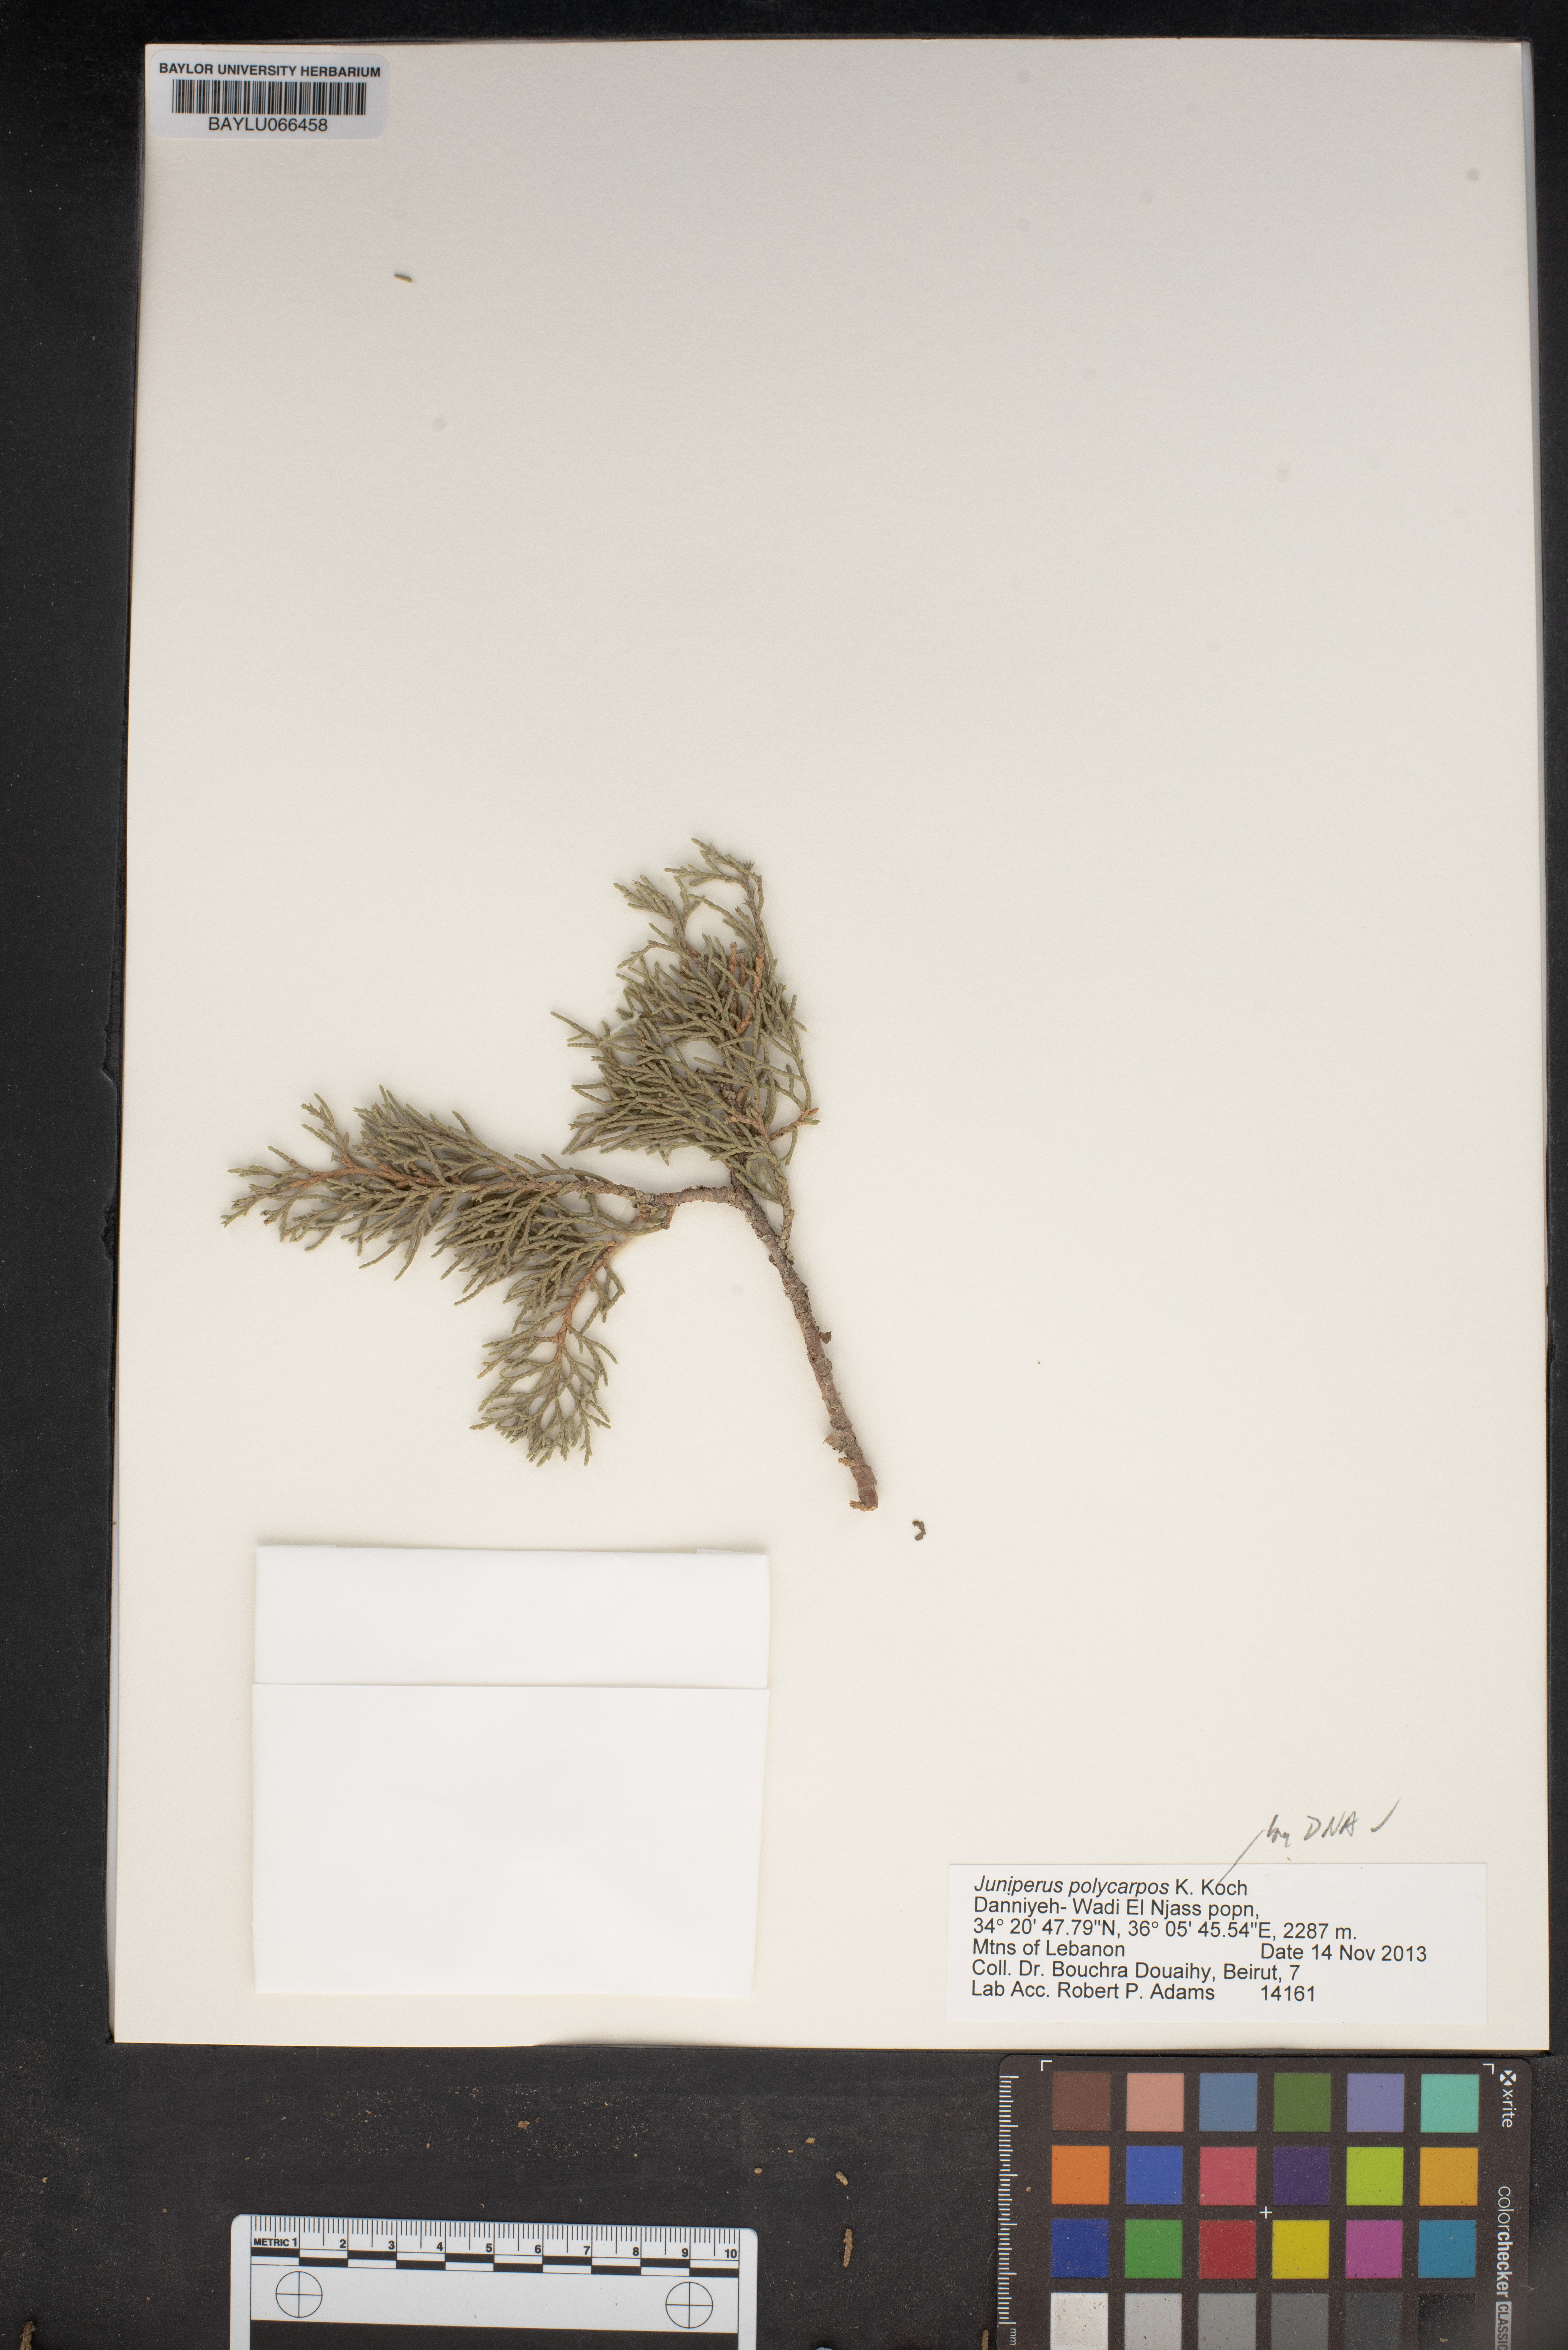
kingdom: Plantae
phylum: Tracheophyta
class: Pinopsida
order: Pinales
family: Cupressaceae
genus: Juniperus
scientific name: Juniperus excelsa
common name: Crimean juniper
